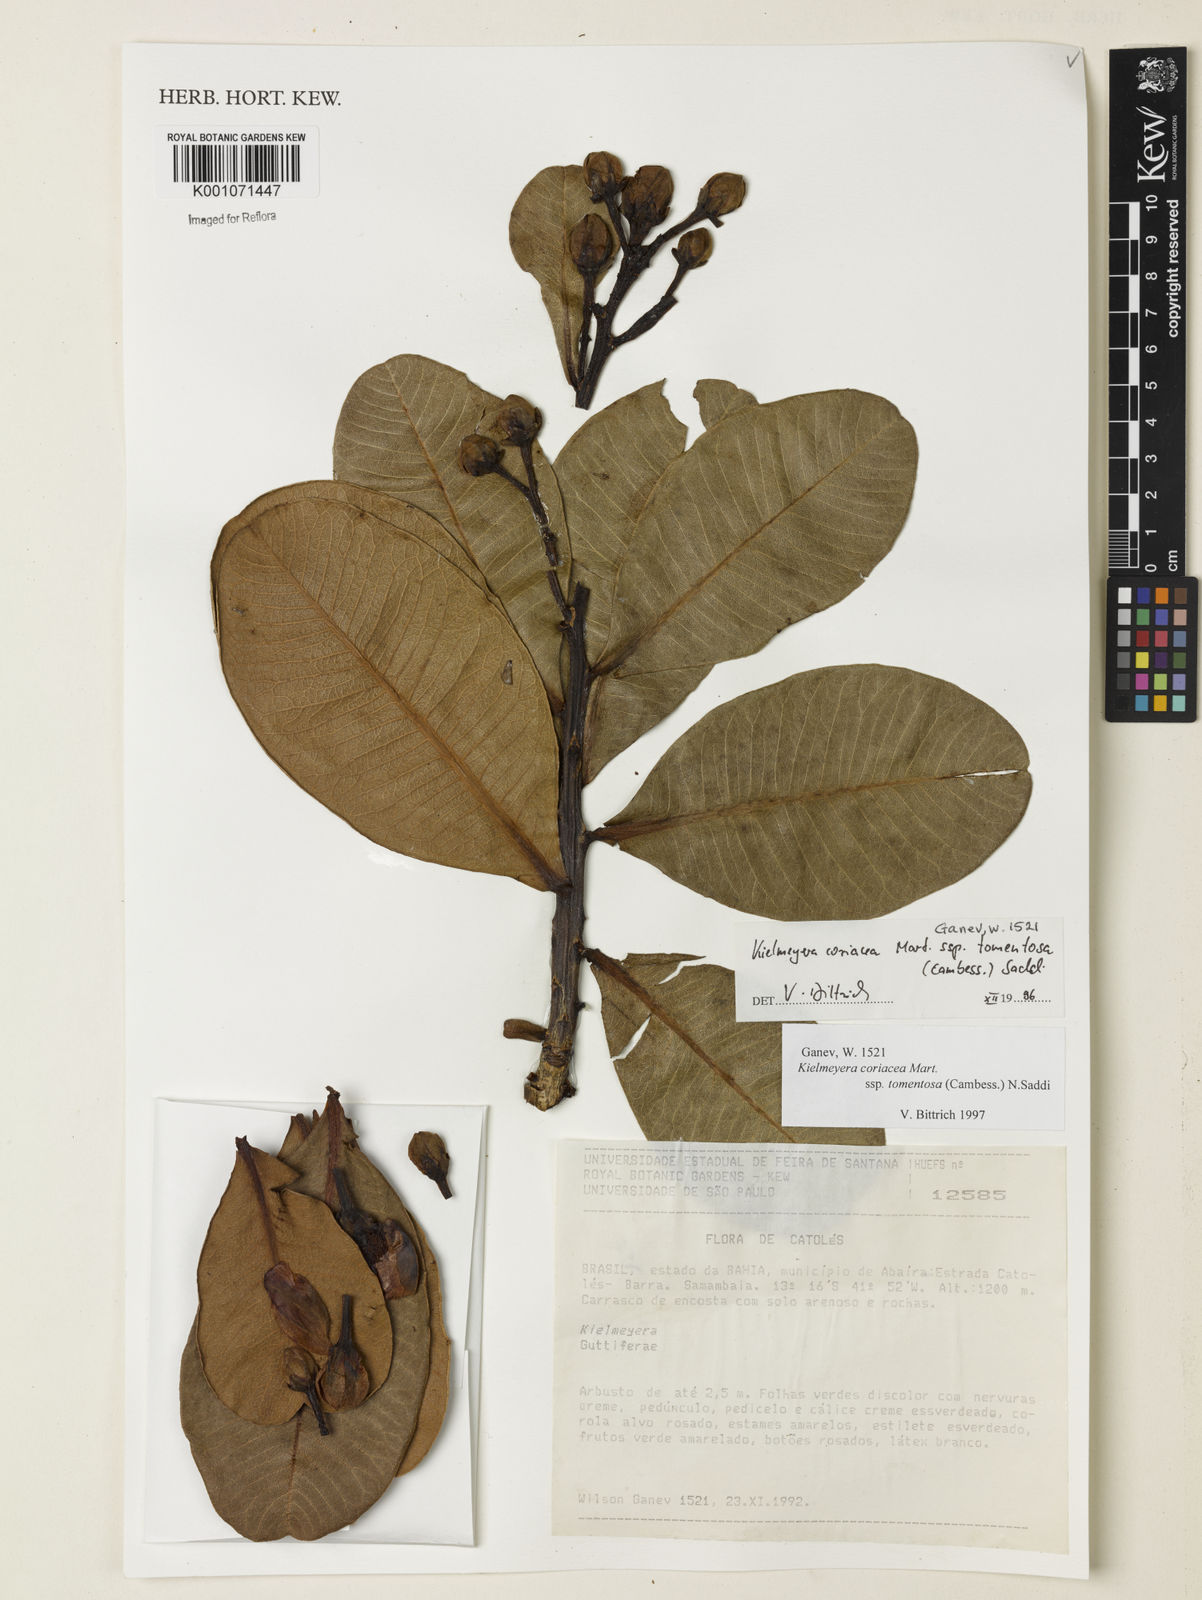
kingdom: Plantae
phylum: Tracheophyta
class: Magnoliopsida
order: Malpighiales
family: Calophyllaceae
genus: Kielmeyera
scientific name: Kielmeyera coriacea
